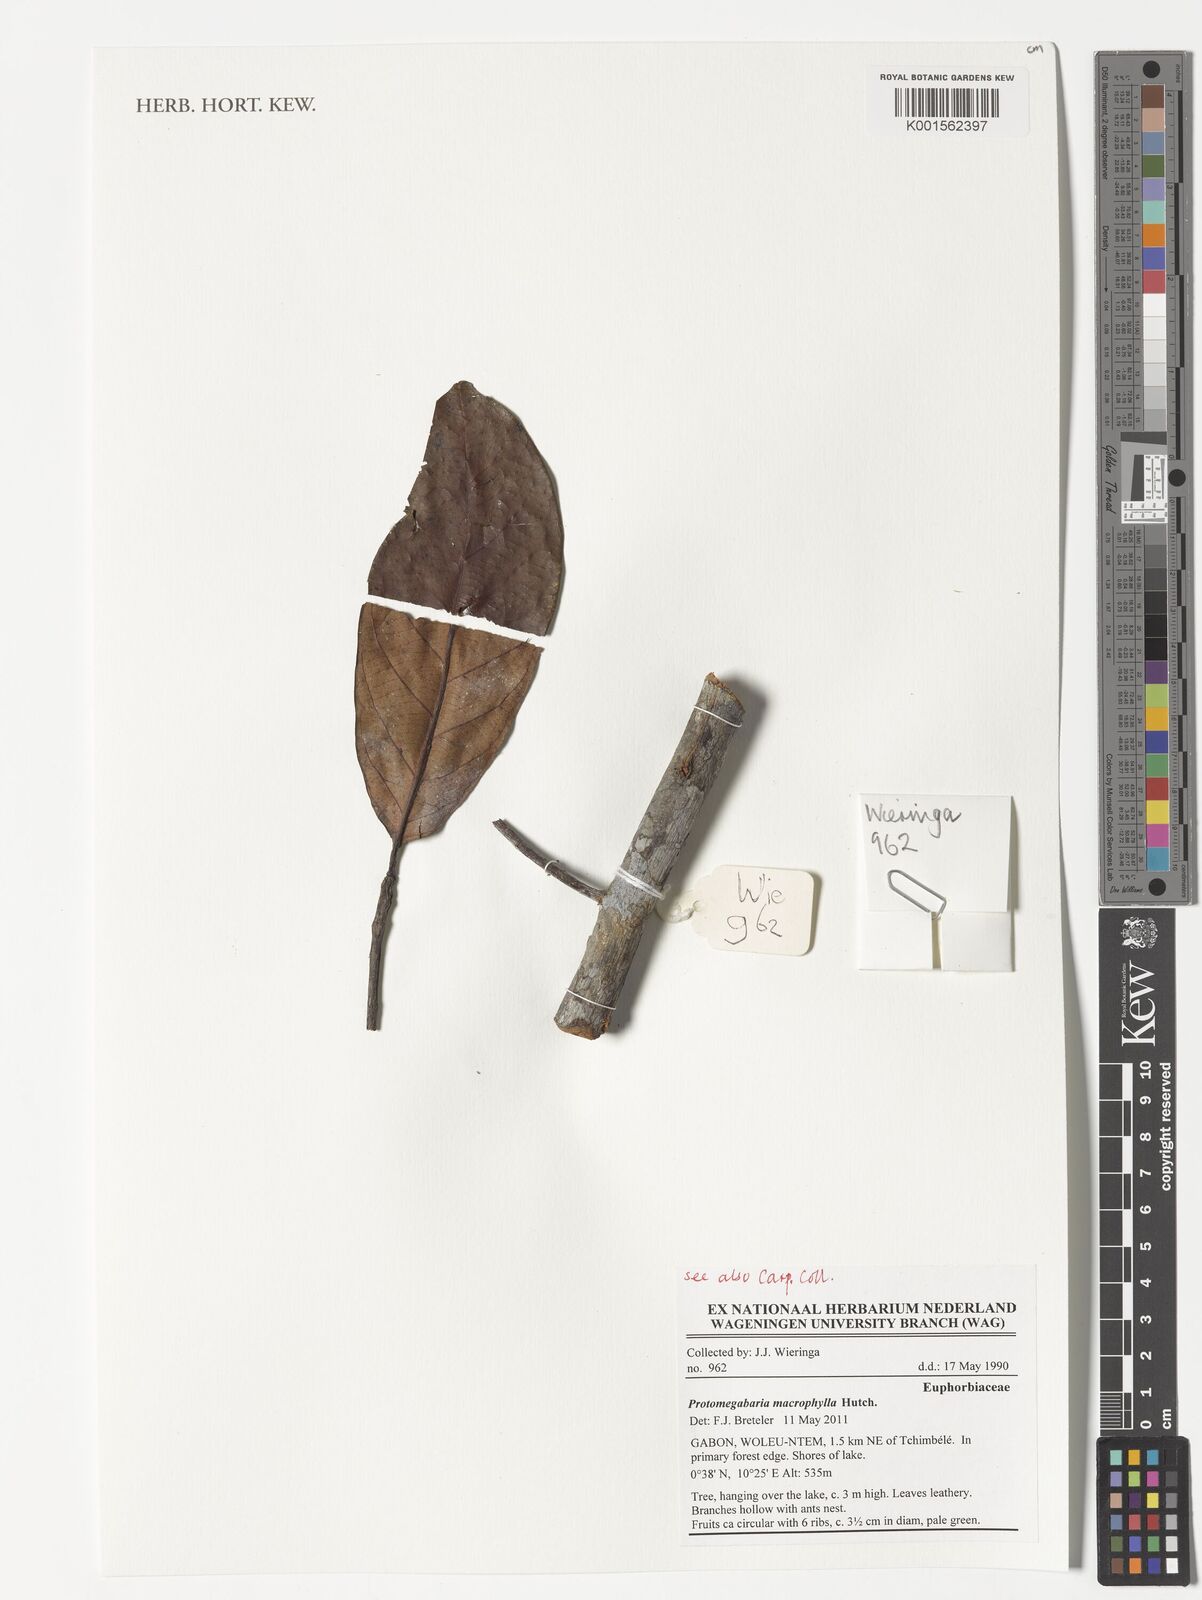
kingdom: Plantae
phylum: Tracheophyta
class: Magnoliopsida
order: Malpighiales
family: Phyllanthaceae
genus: Protomegabaria
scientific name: Protomegabaria macrophylla
